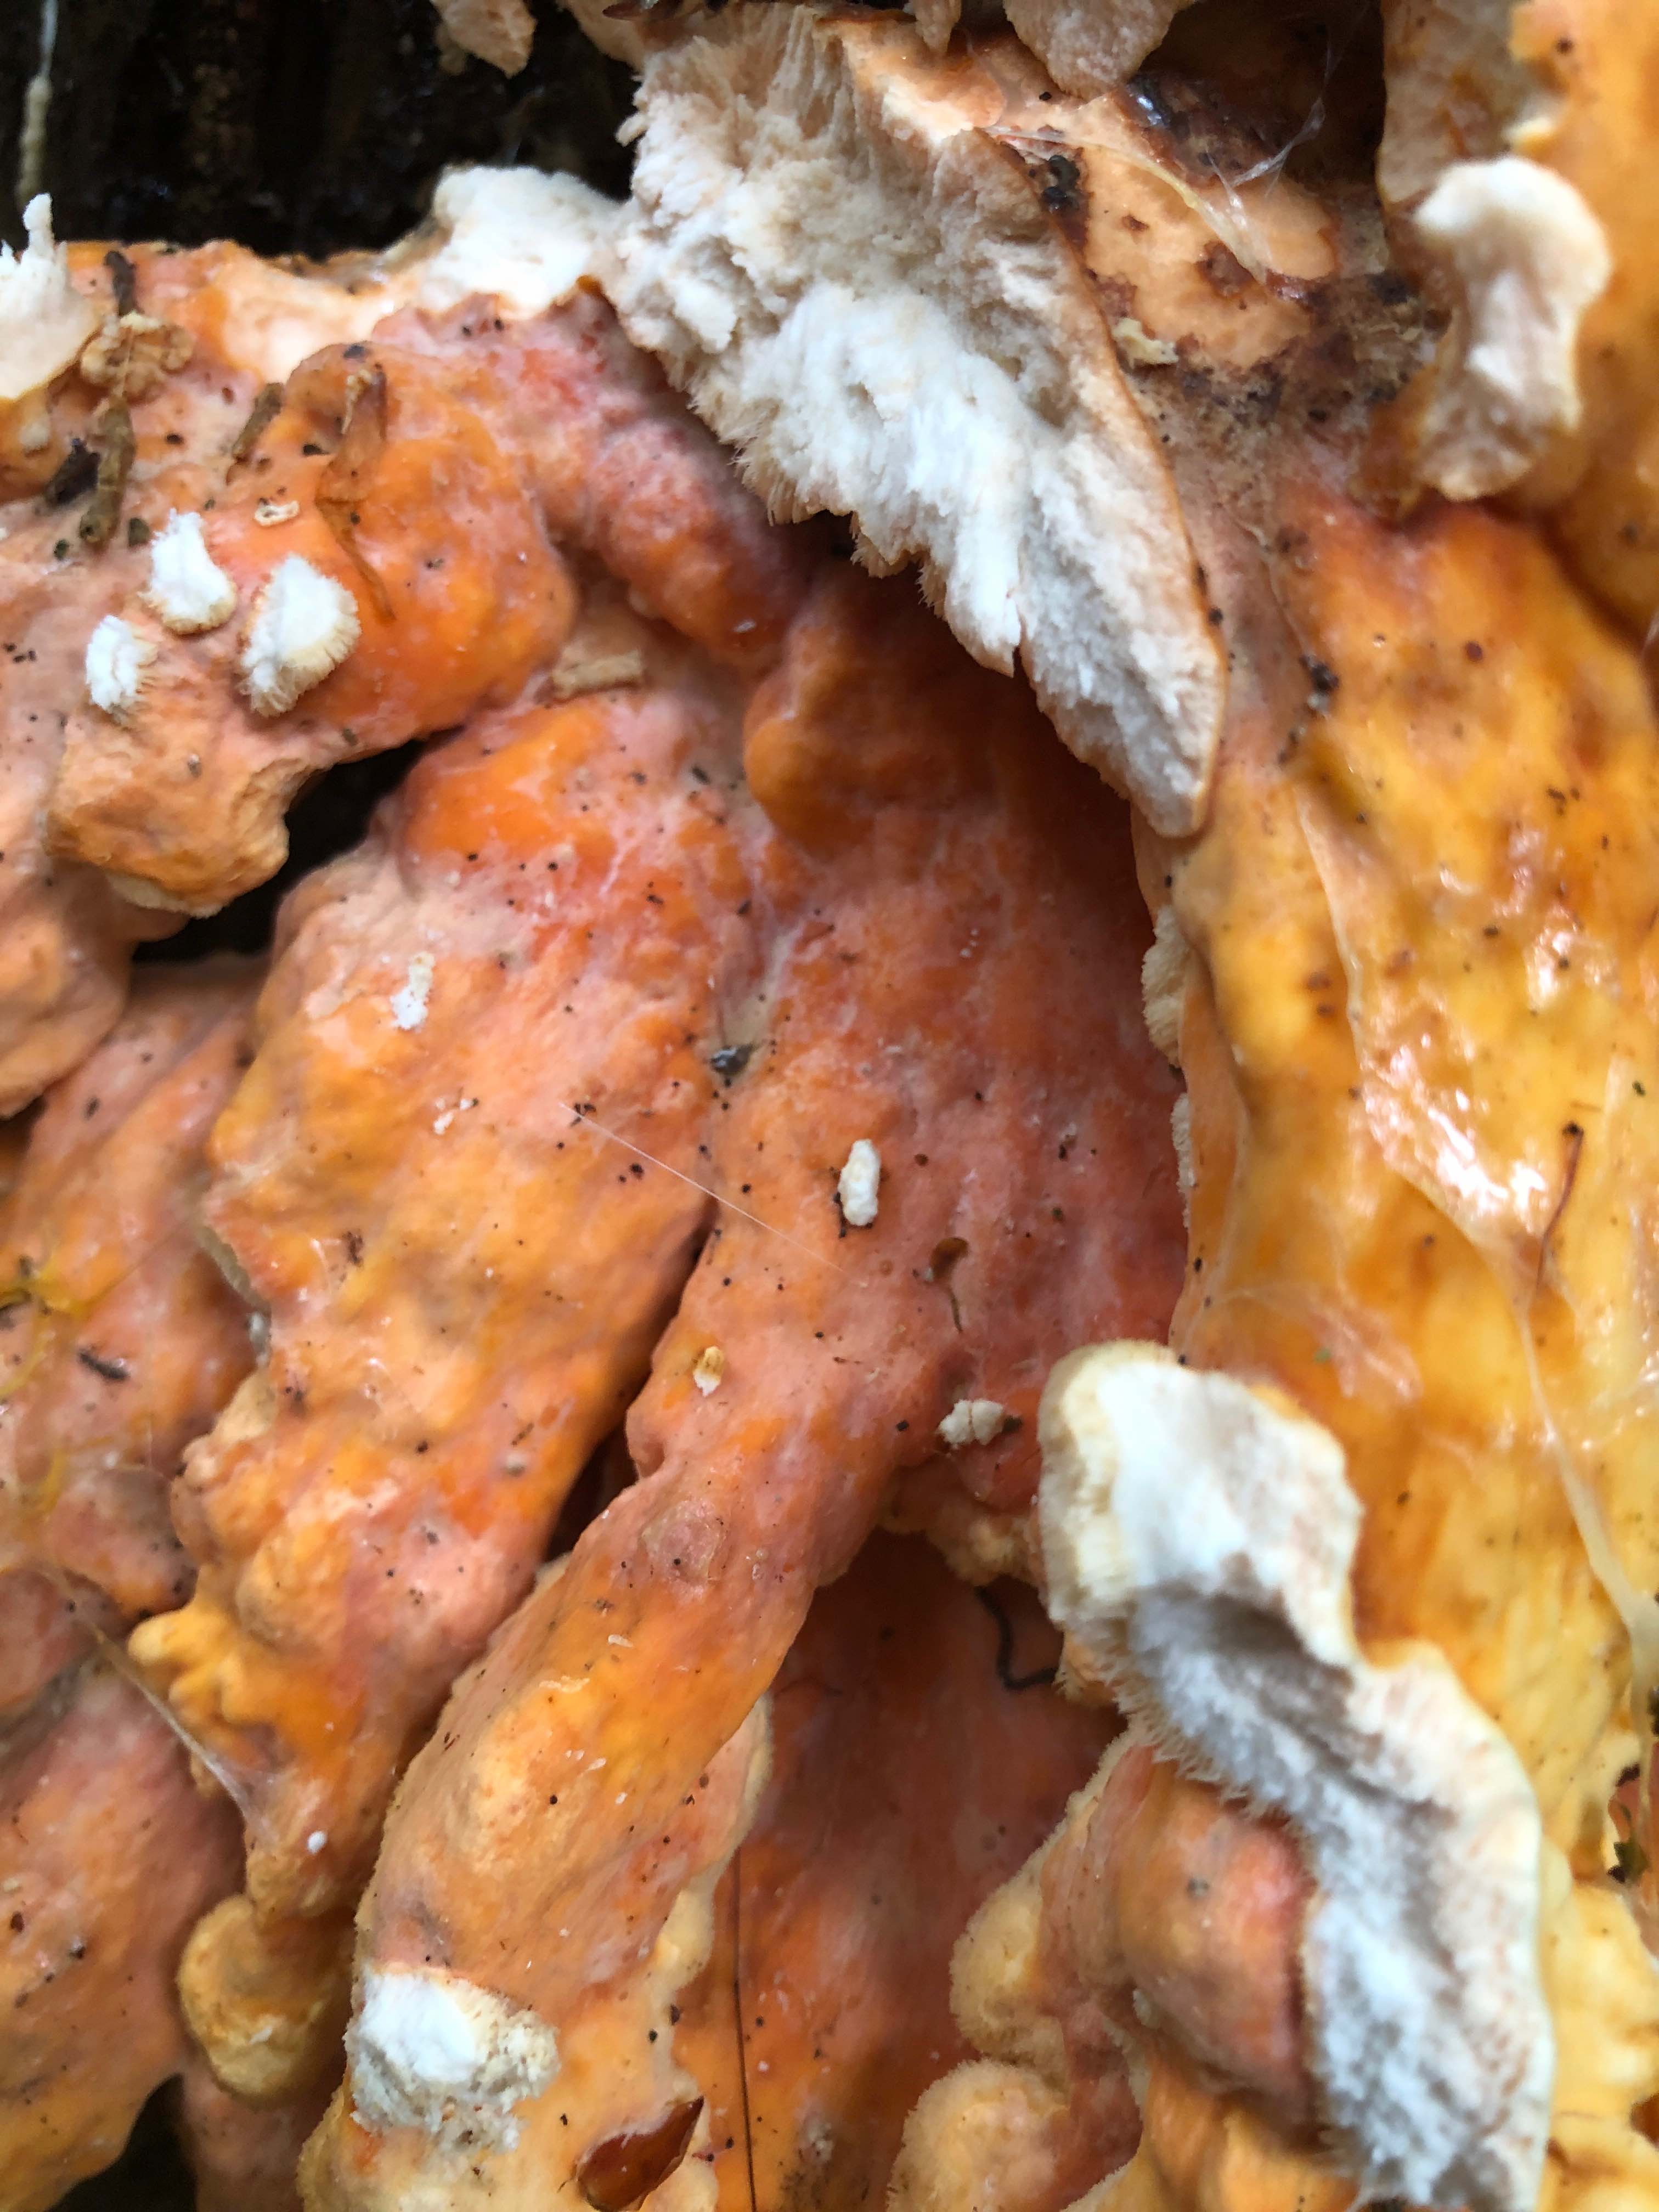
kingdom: Fungi
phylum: Basidiomycota
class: Agaricomycetes
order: Polyporales
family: Laetiporaceae
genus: Laetiporus
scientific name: Laetiporus sulphureus
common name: svovlporesvamp
